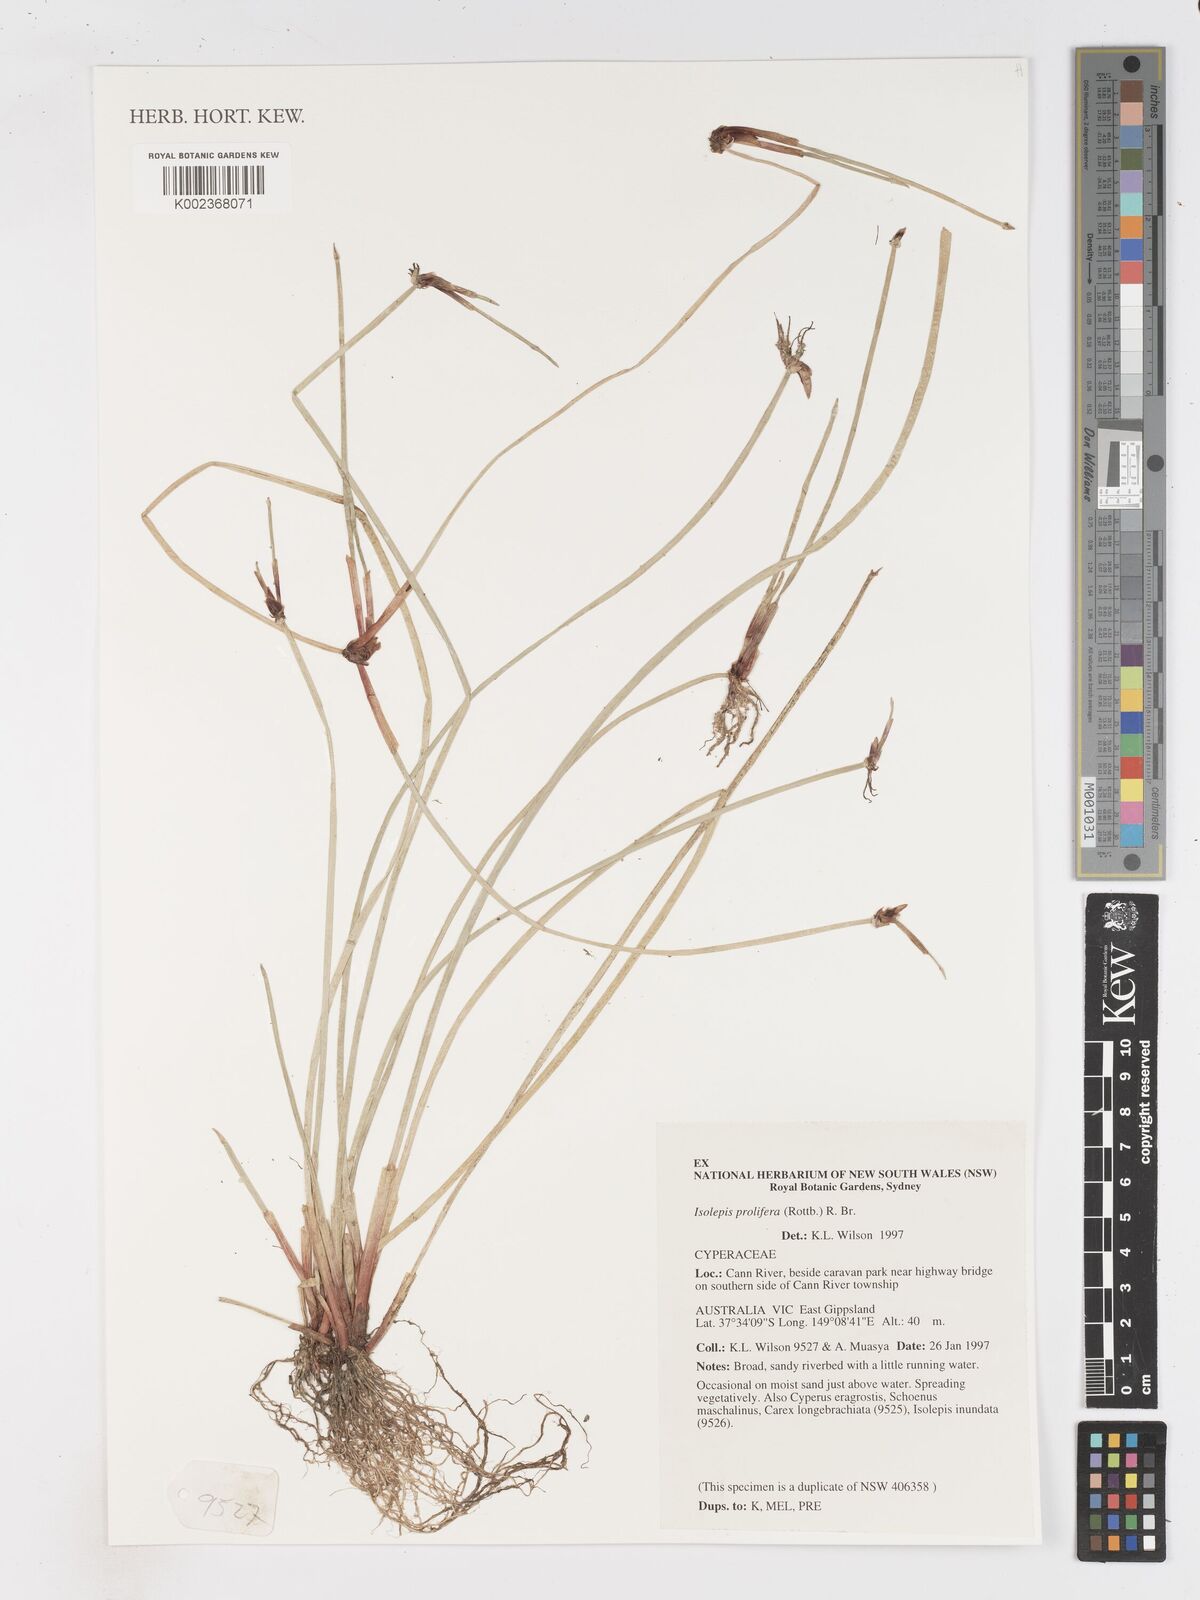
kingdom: Plantae
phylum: Tracheophyta
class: Liliopsida
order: Poales
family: Cyperaceae
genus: Isolepis
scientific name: Isolepis prolifera
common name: Proliferating bulrush
